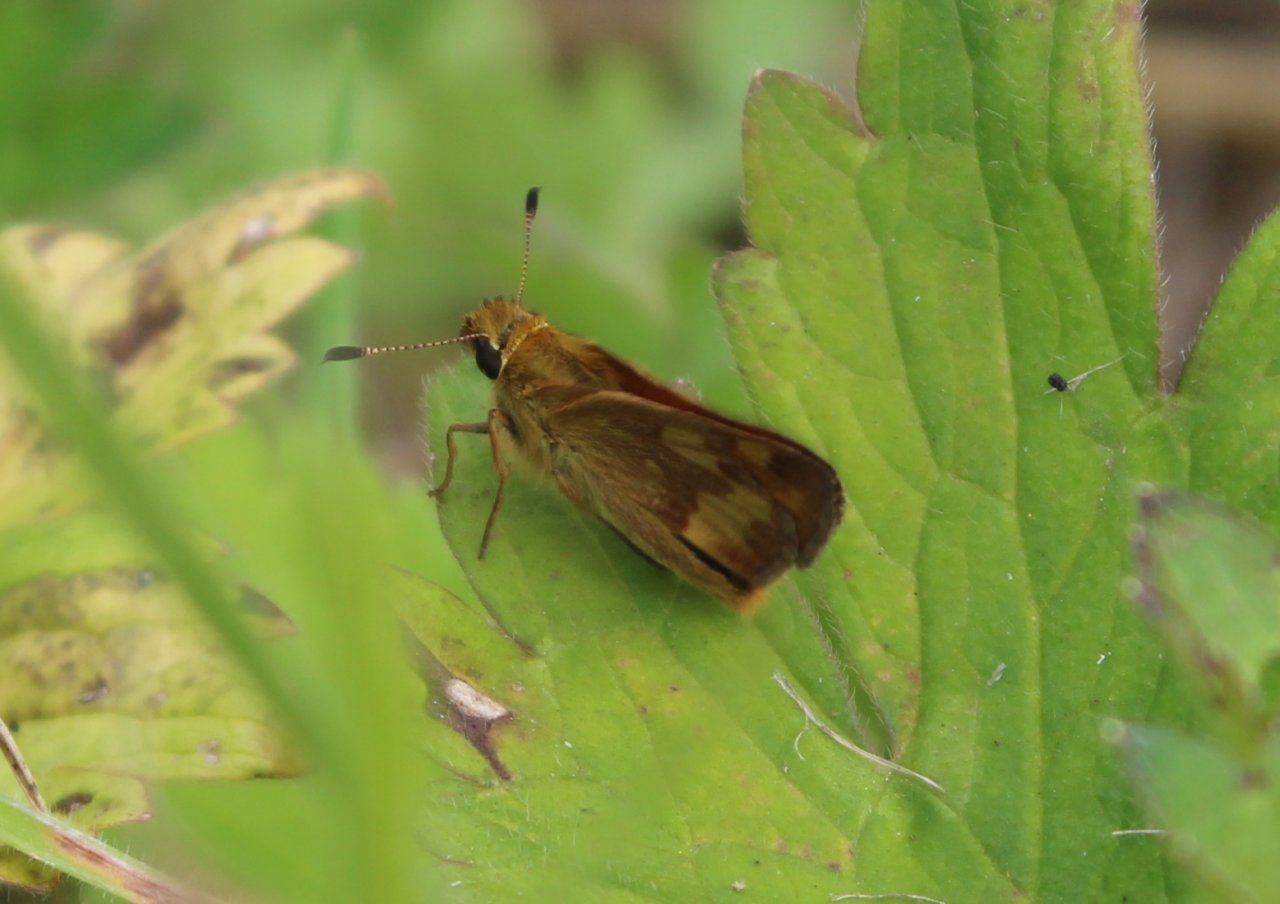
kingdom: Animalia
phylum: Arthropoda
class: Insecta
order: Lepidoptera
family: Hesperiidae
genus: Ochlodes
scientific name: Ochlodes sylvanoides
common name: Woodland Skipper
